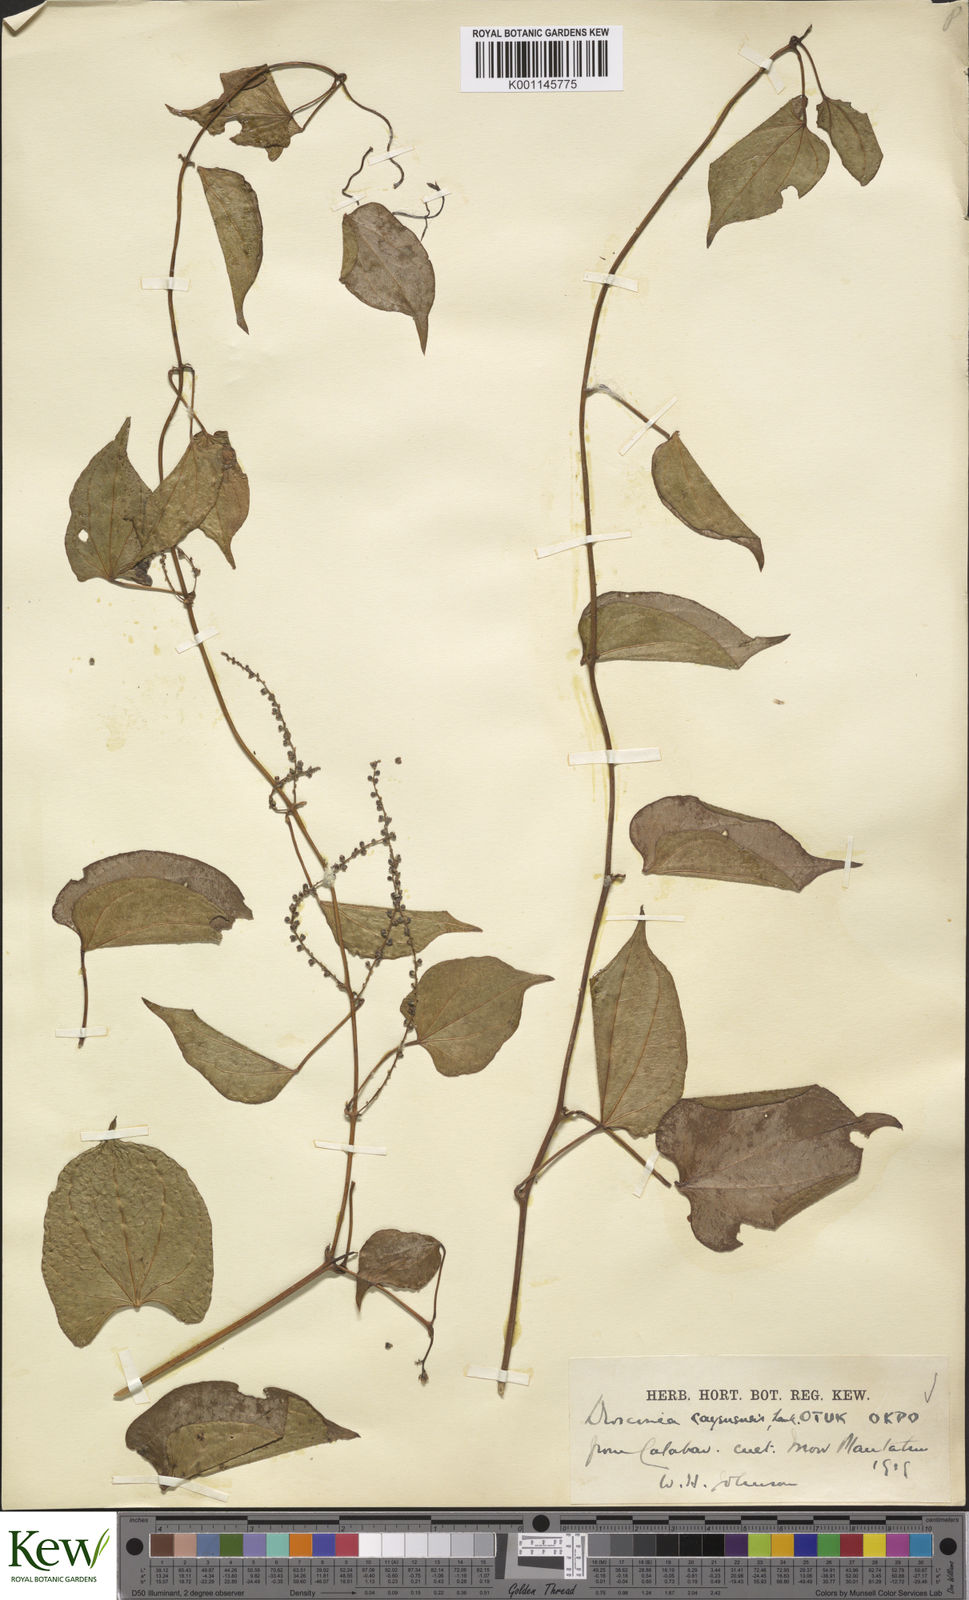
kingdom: Plantae
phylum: Tracheophyta
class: Liliopsida
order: Dioscoreales
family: Dioscoreaceae
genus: Dioscorea
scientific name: Dioscorea cayenensis
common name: Attoto yam
